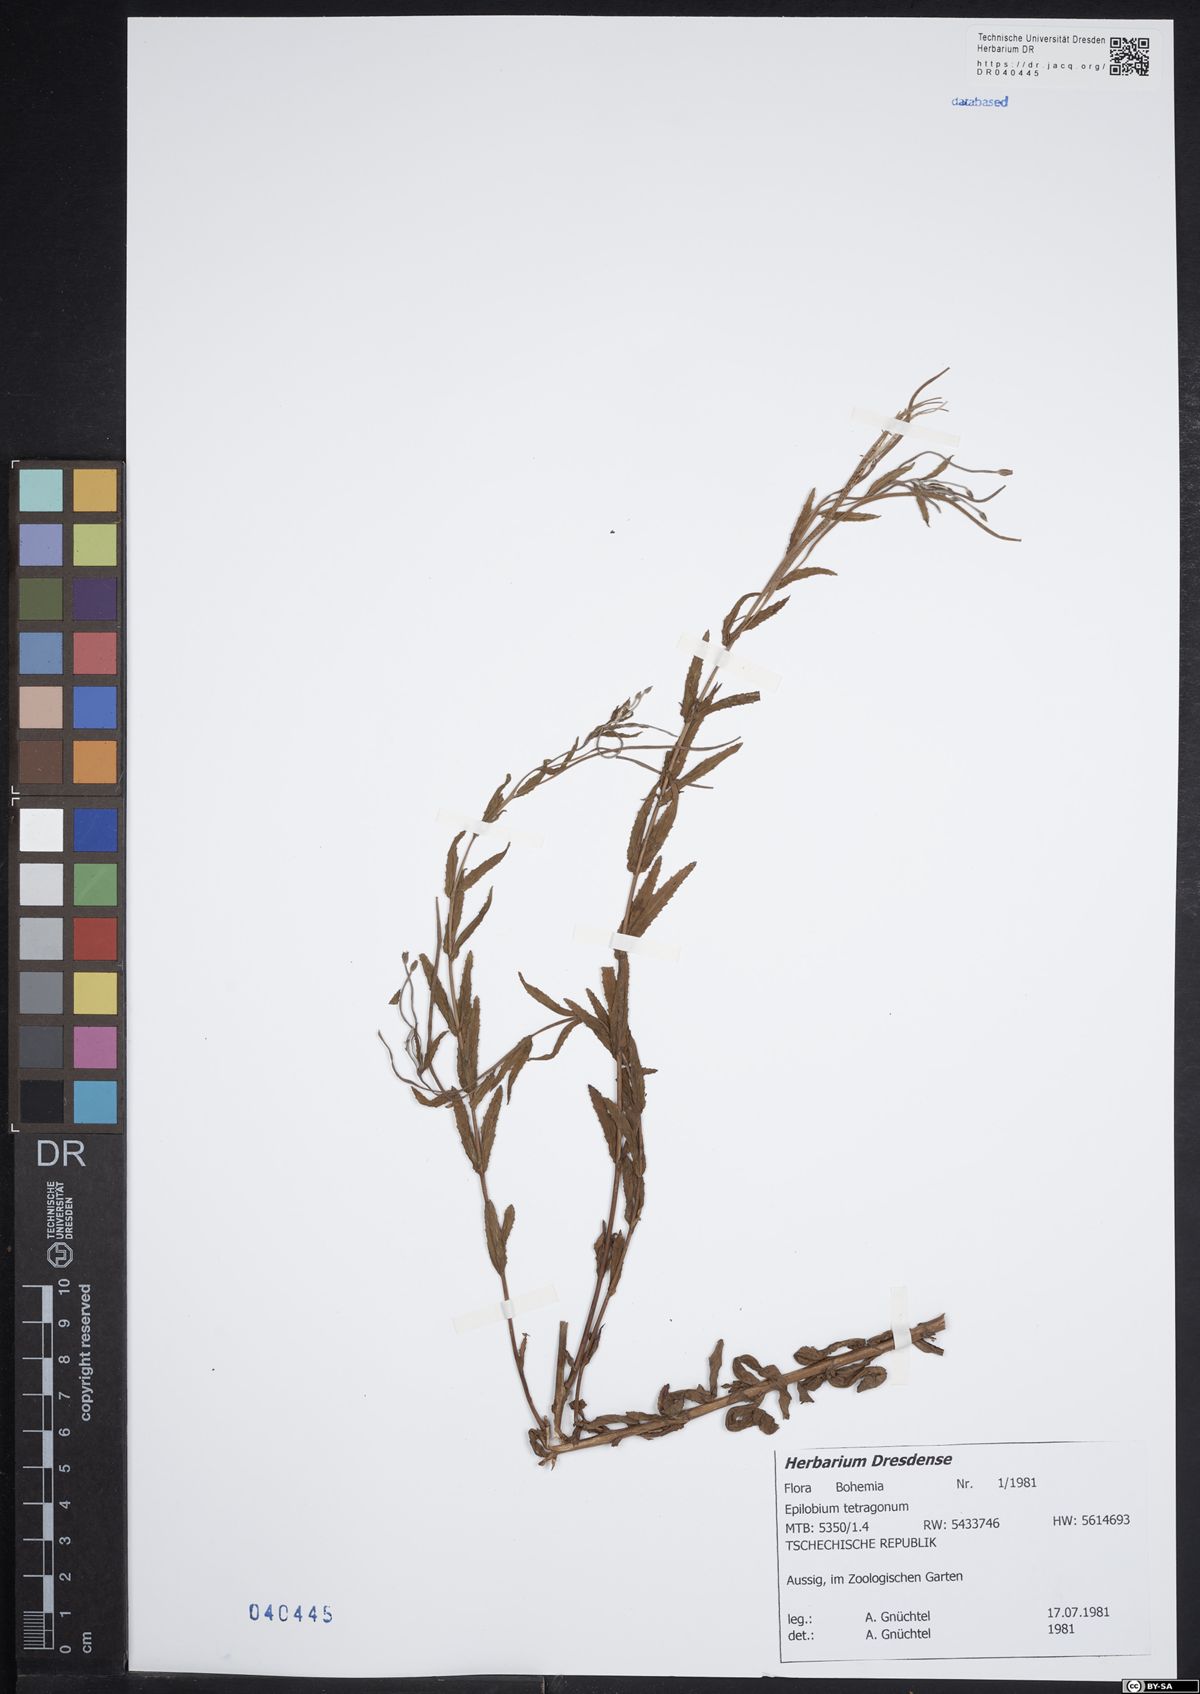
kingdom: Plantae
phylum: Tracheophyta
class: Magnoliopsida
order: Myrtales
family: Onagraceae
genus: Epilobium
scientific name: Epilobium tetragonum
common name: Square-stemmed willowherb
